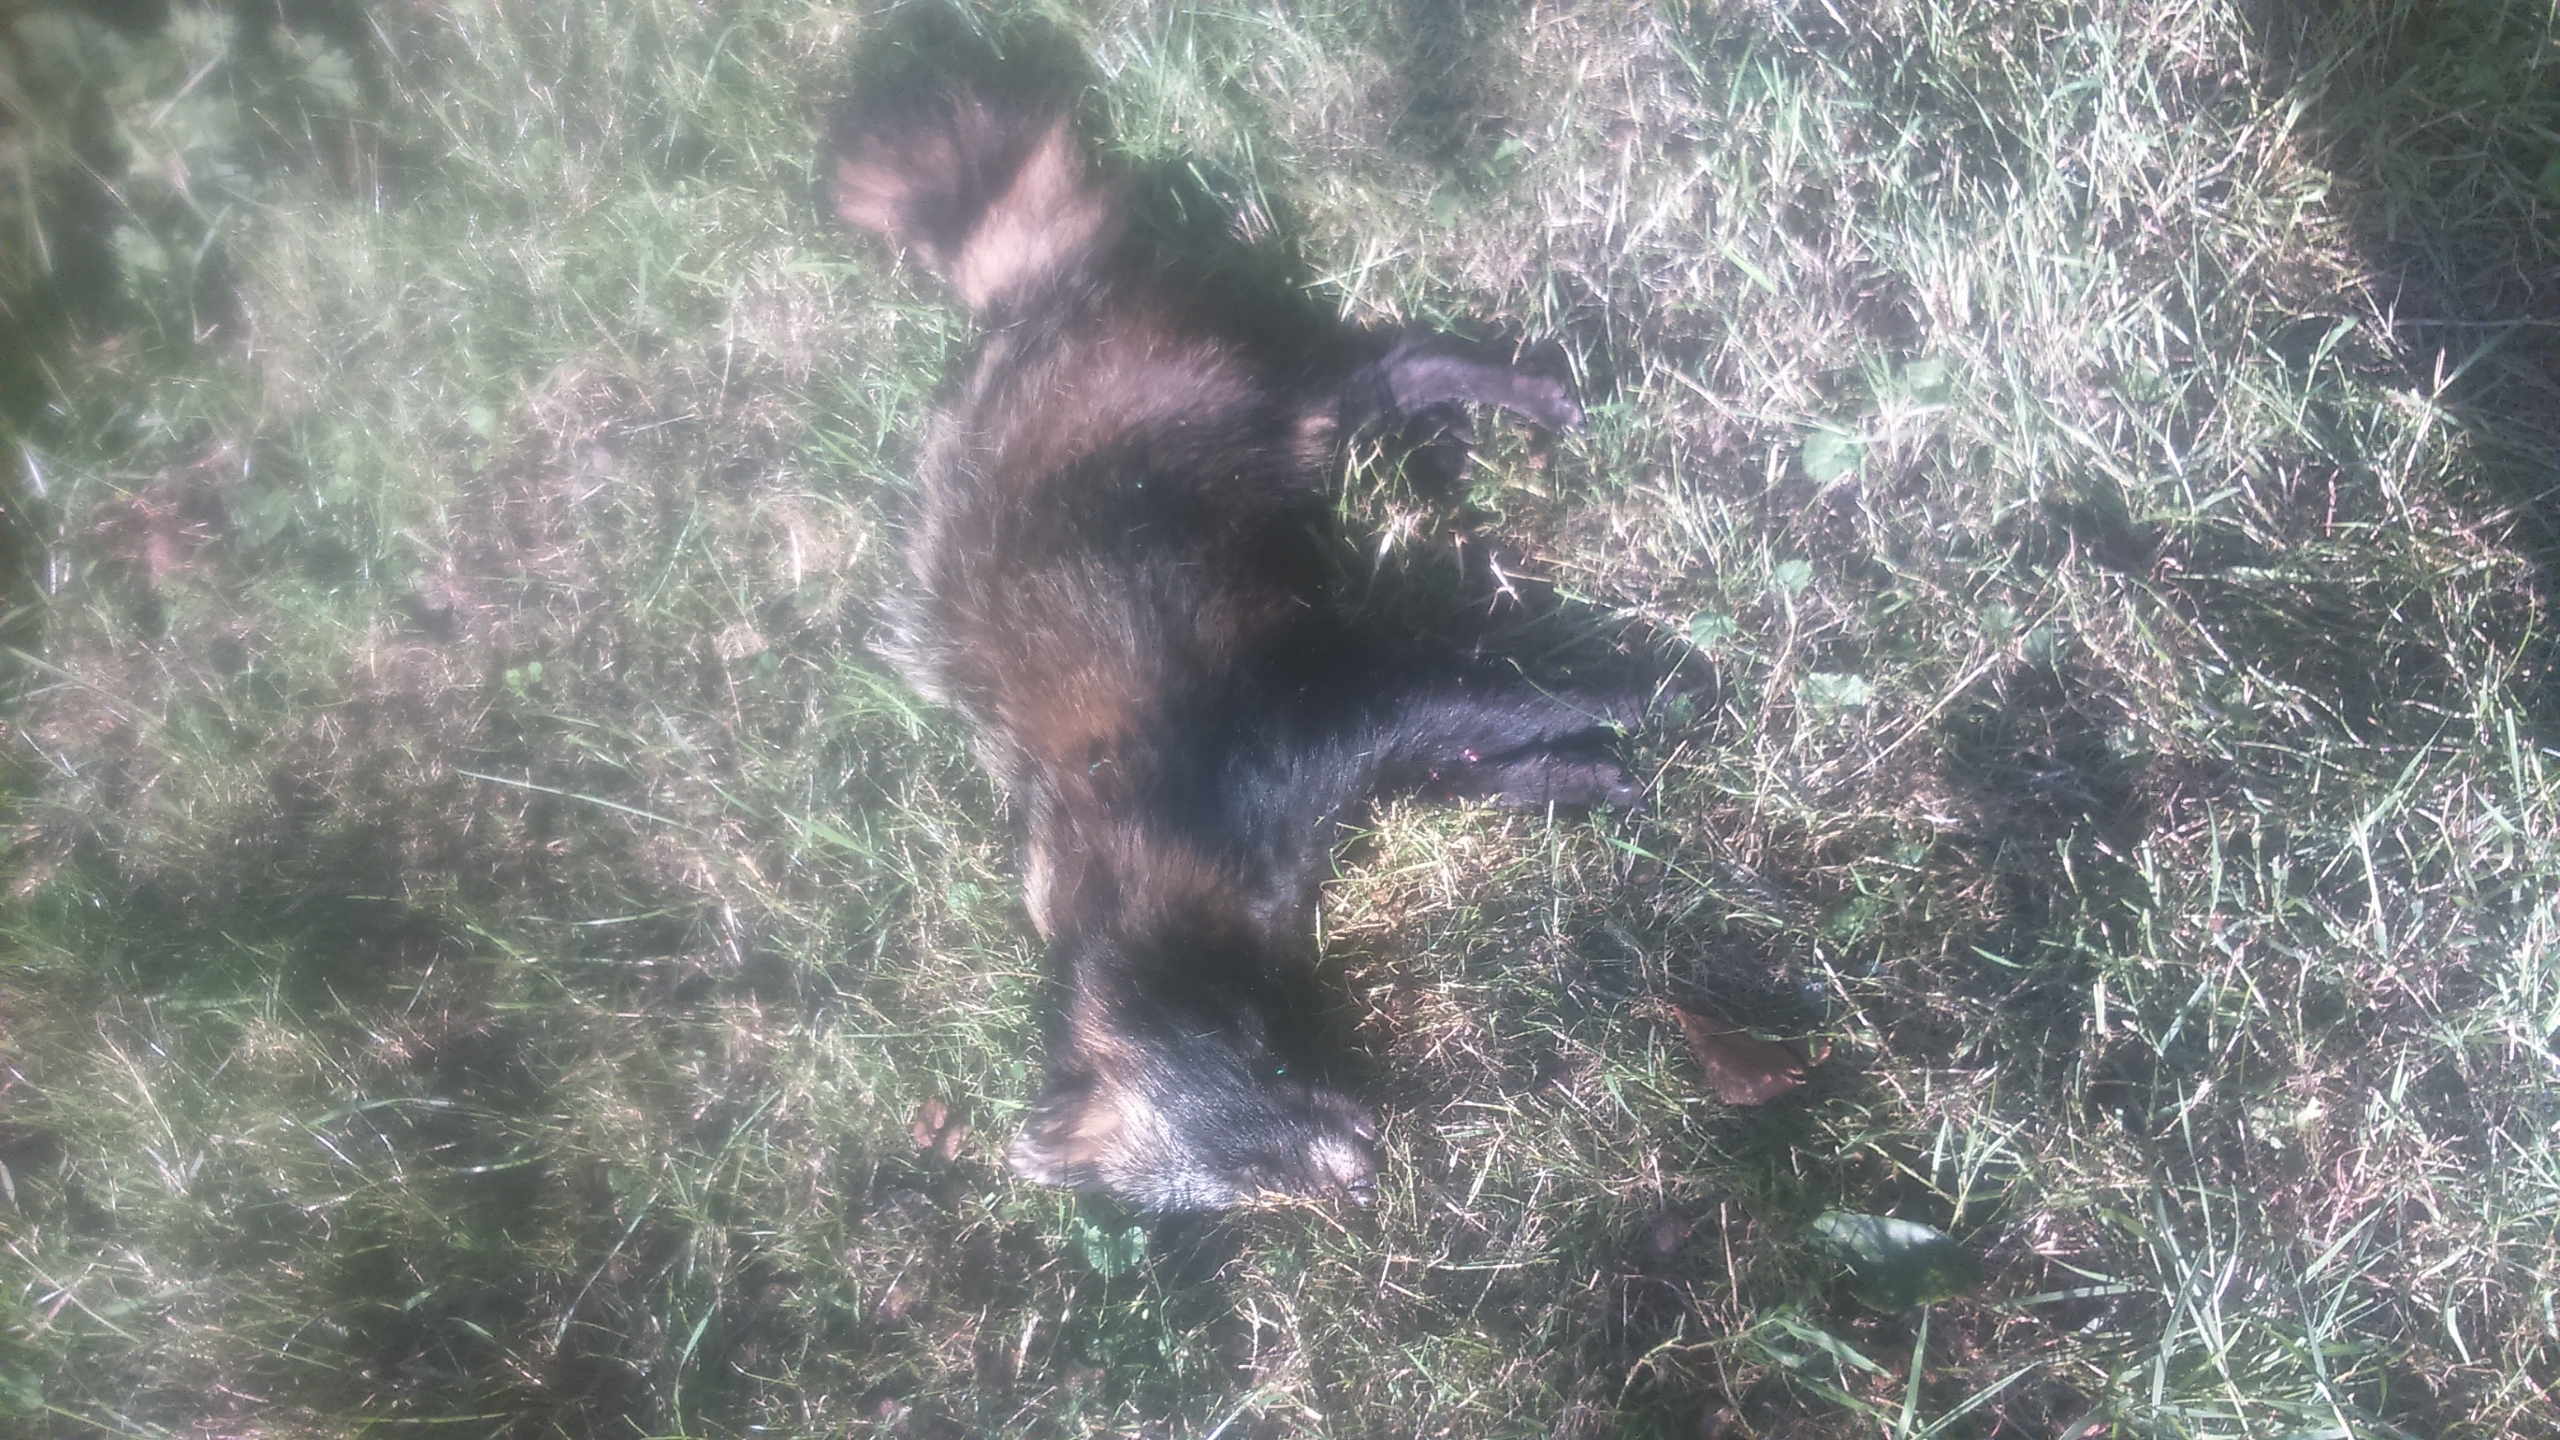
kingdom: Animalia
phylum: Chordata
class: Mammalia
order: Carnivora
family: Canidae
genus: Nyctereutes
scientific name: Nyctereutes procyonoides
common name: Mårhund
